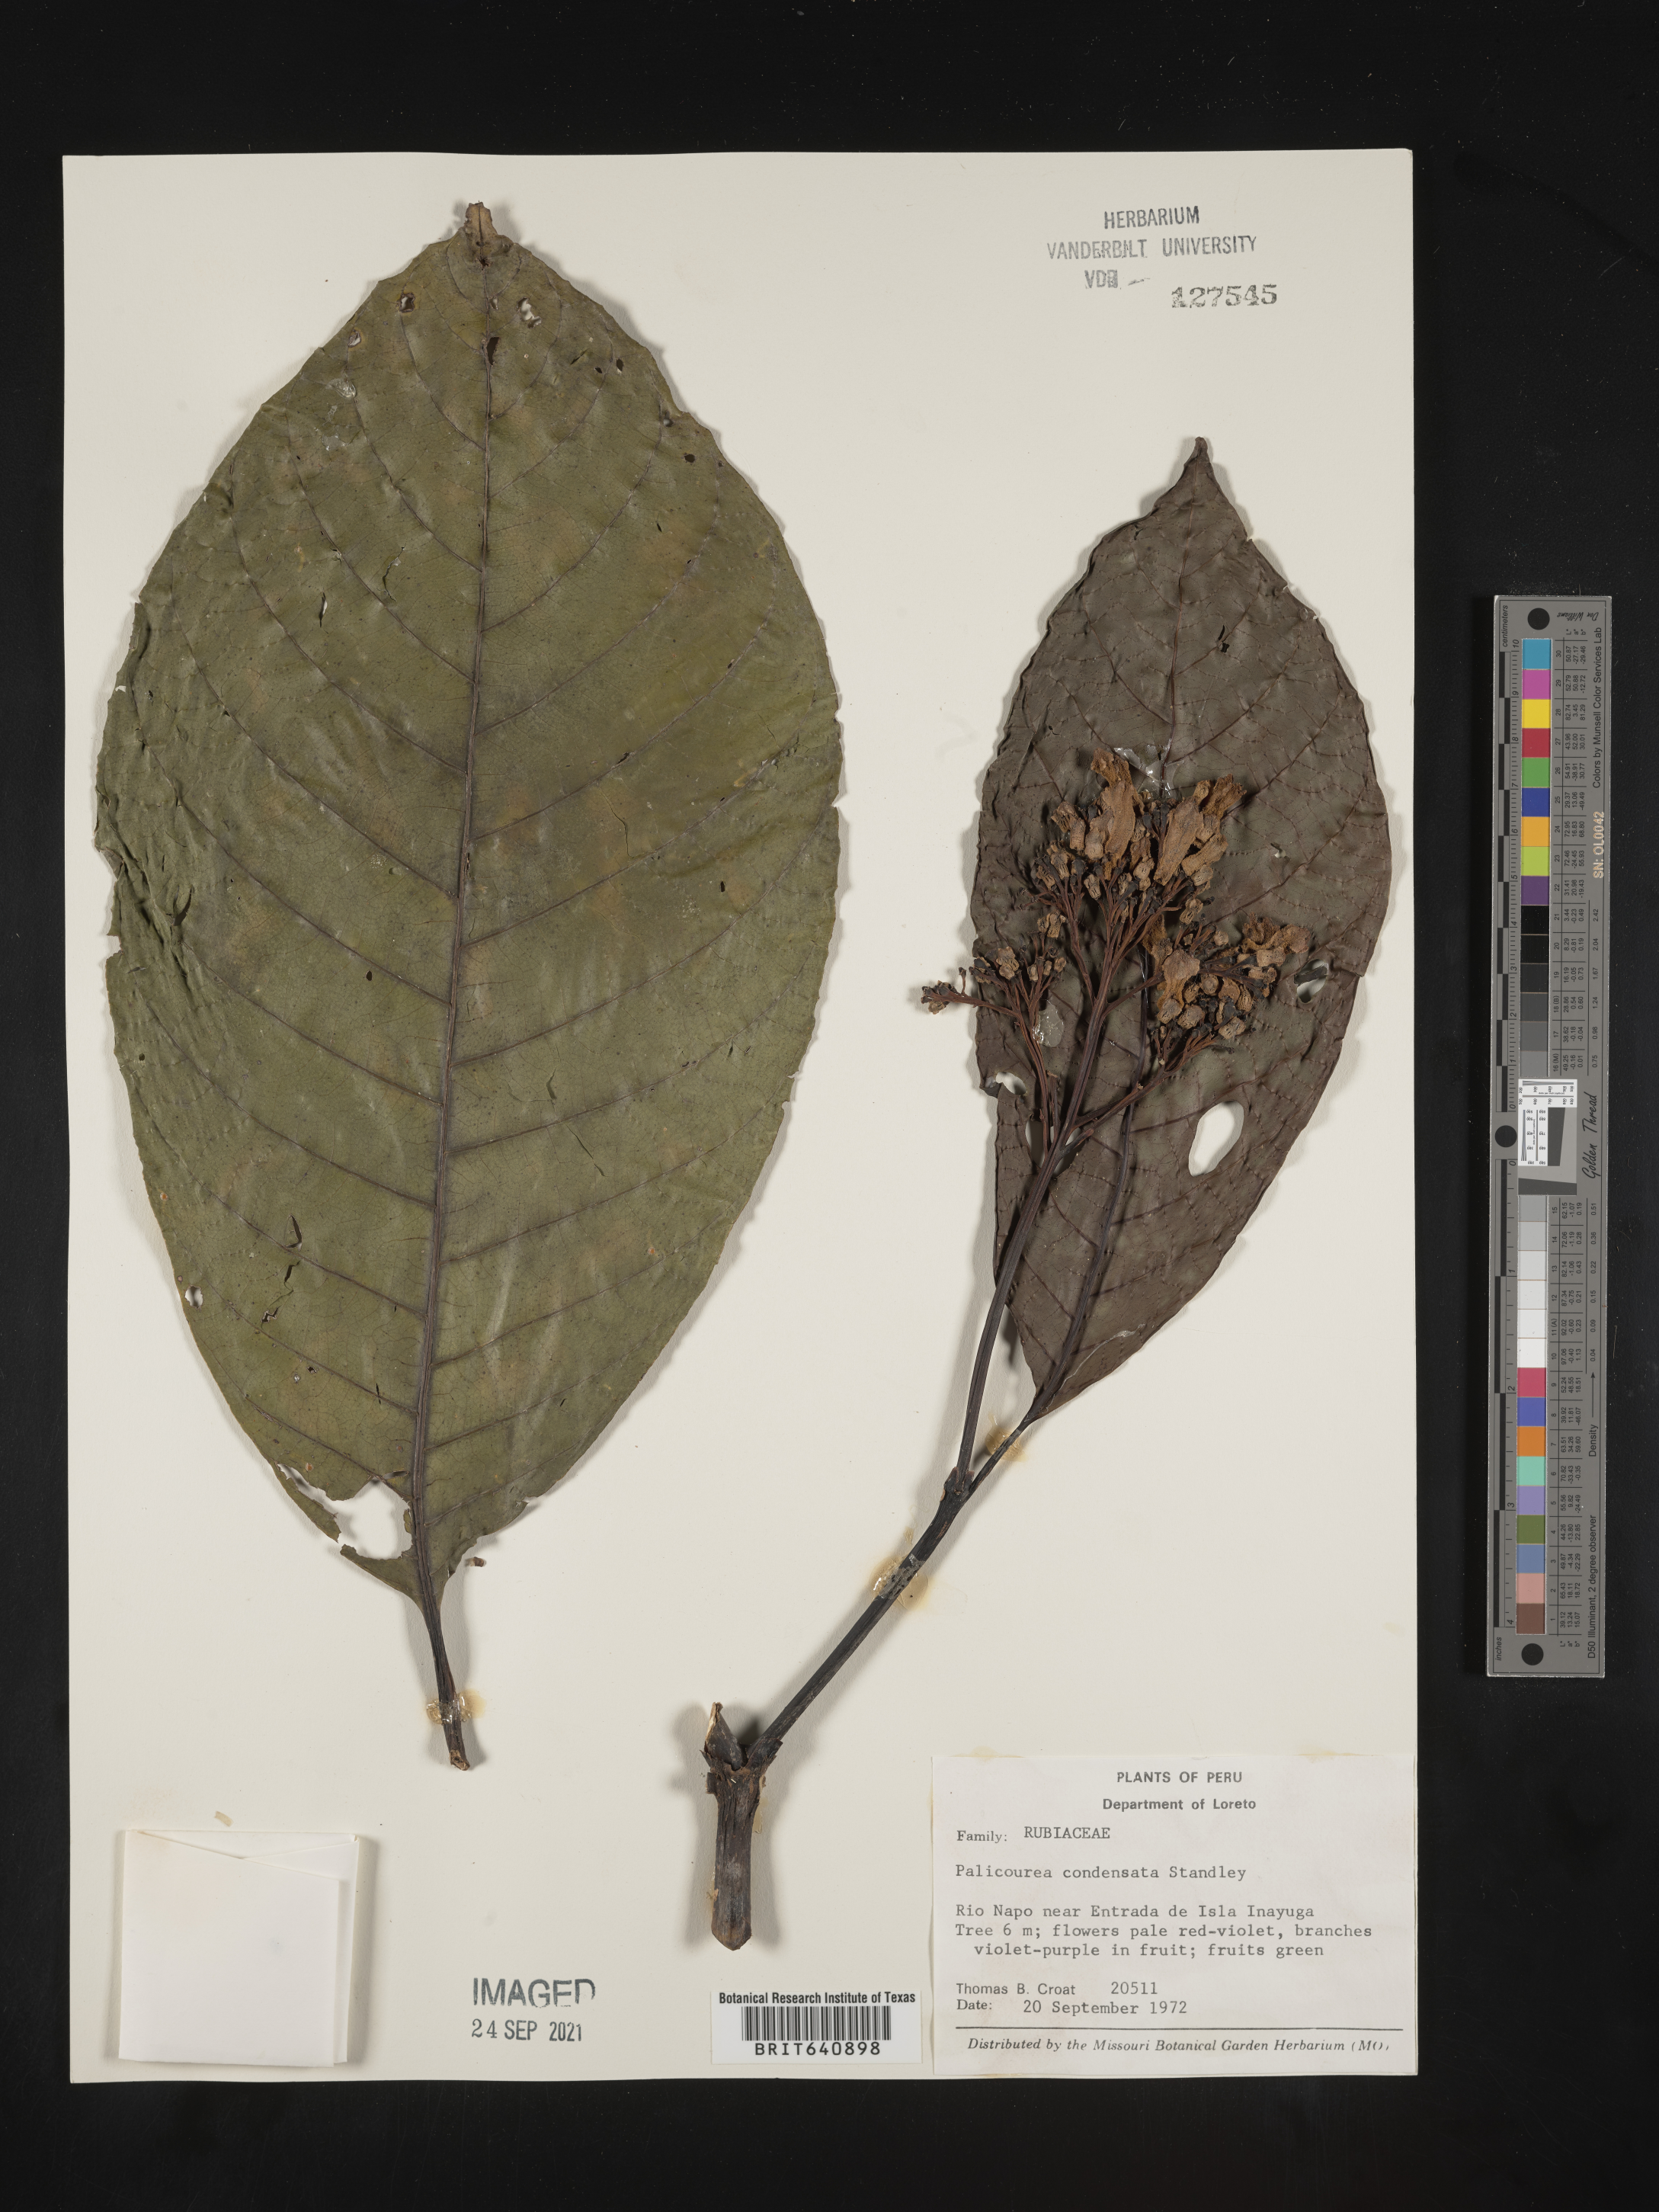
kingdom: Plantae
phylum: Tracheophyta
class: Magnoliopsida
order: Gentianales
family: Rubiaceae
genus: Palicourea
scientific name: Palicourea
